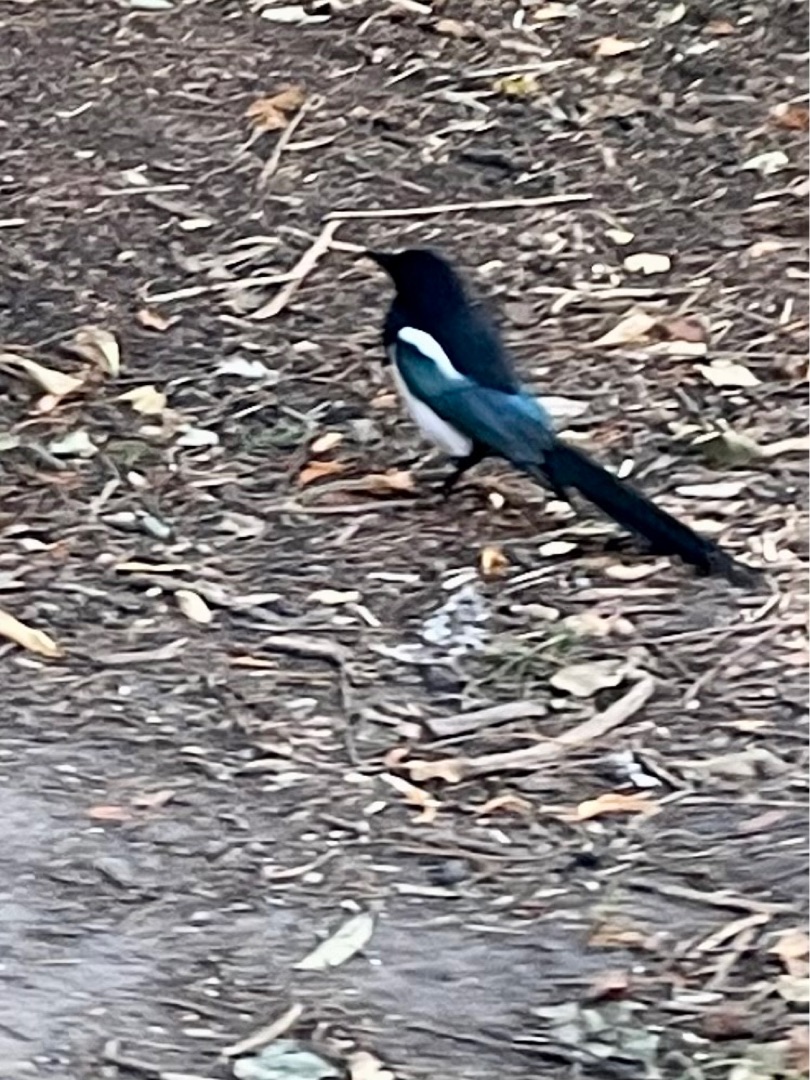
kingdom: Animalia
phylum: Chordata
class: Aves
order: Passeriformes
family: Corvidae
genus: Pica
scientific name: Pica pica
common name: Husskade
